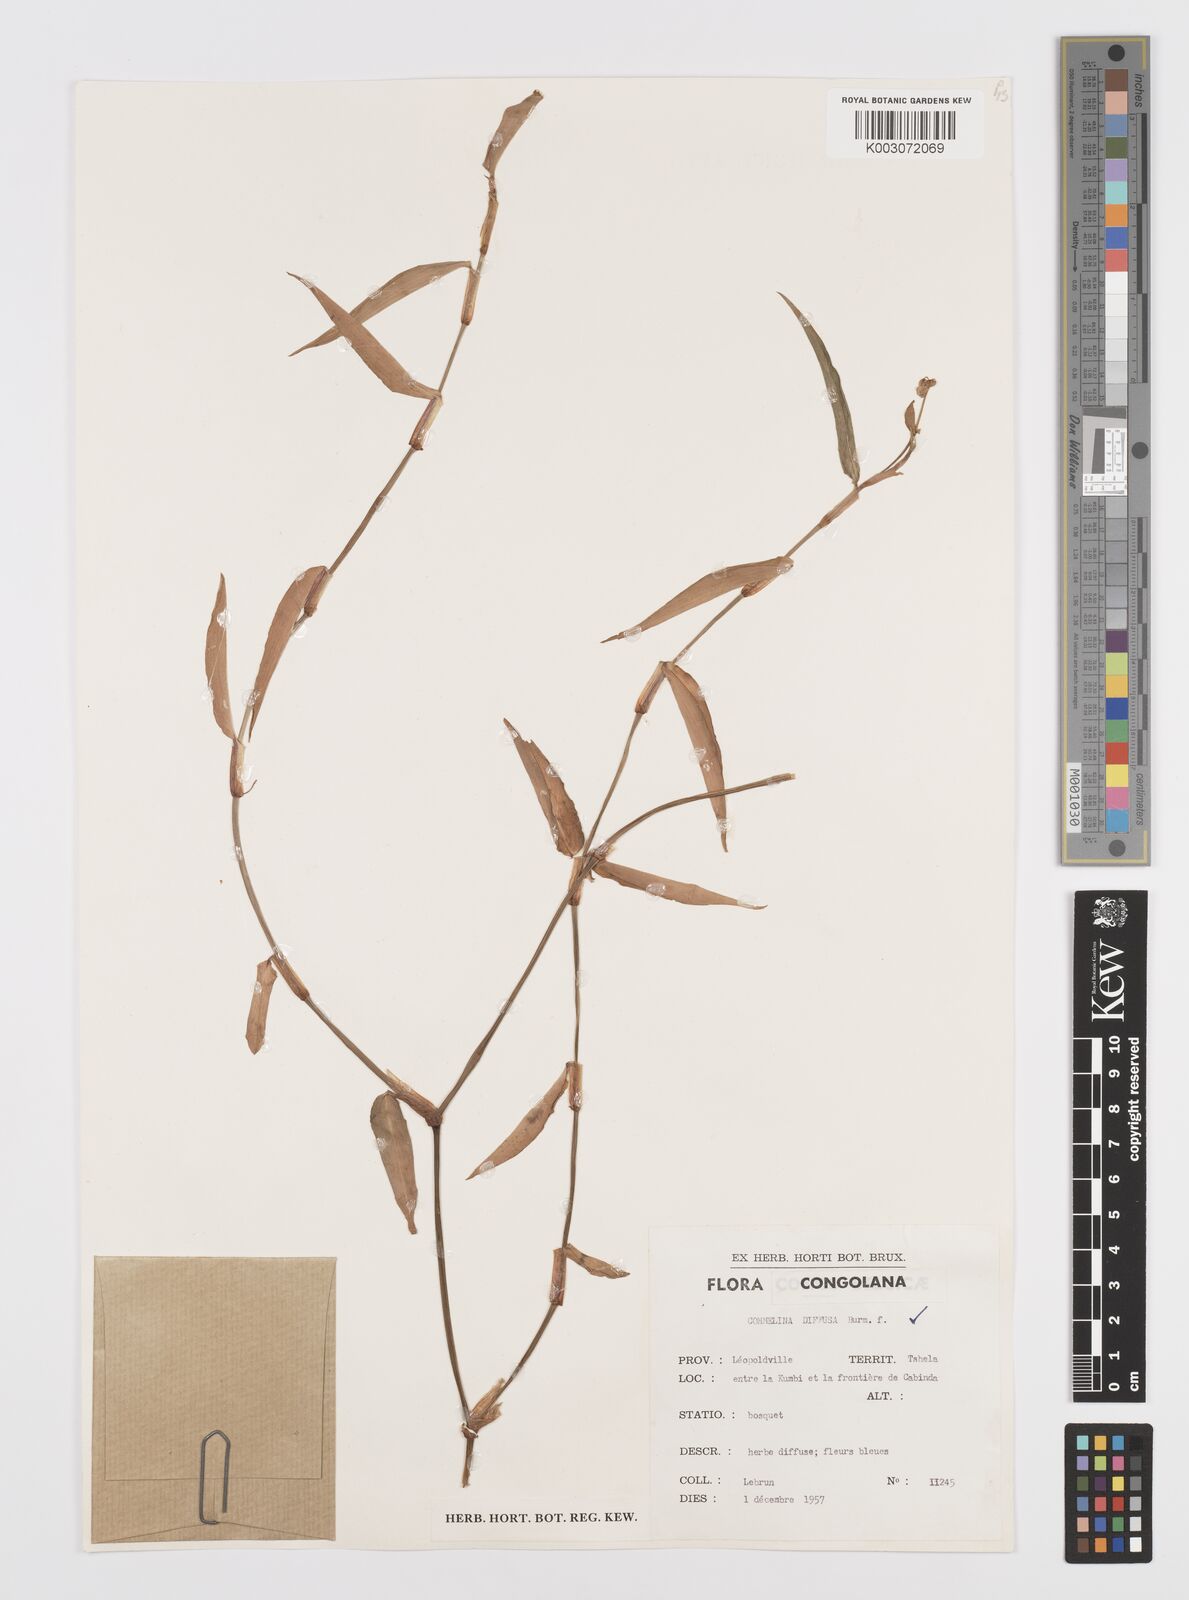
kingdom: Plantae
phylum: Tracheophyta
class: Liliopsida
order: Commelinales
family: Commelinaceae
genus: Commelina
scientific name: Commelina diffusa
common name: Climbing dayflower
